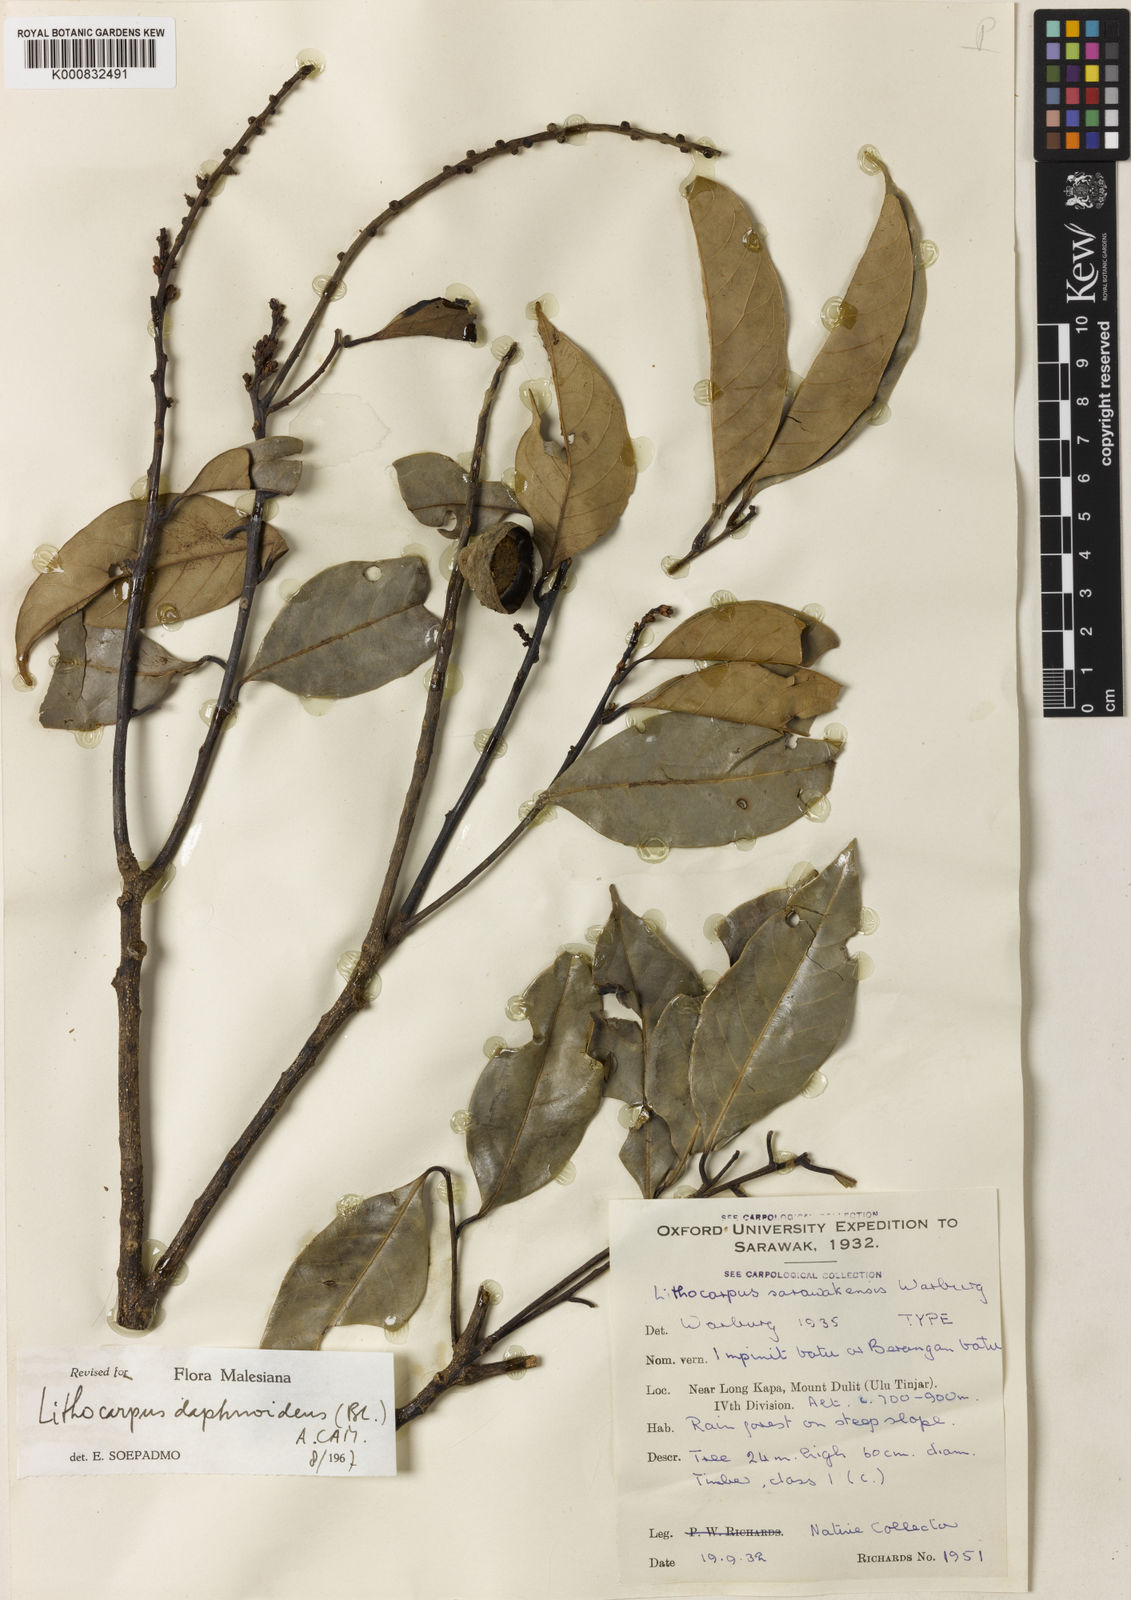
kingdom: Plantae
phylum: Tracheophyta
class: Magnoliopsida
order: Fagales
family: Fagaceae
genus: Lithocarpus
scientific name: Lithocarpus daphnoideus
